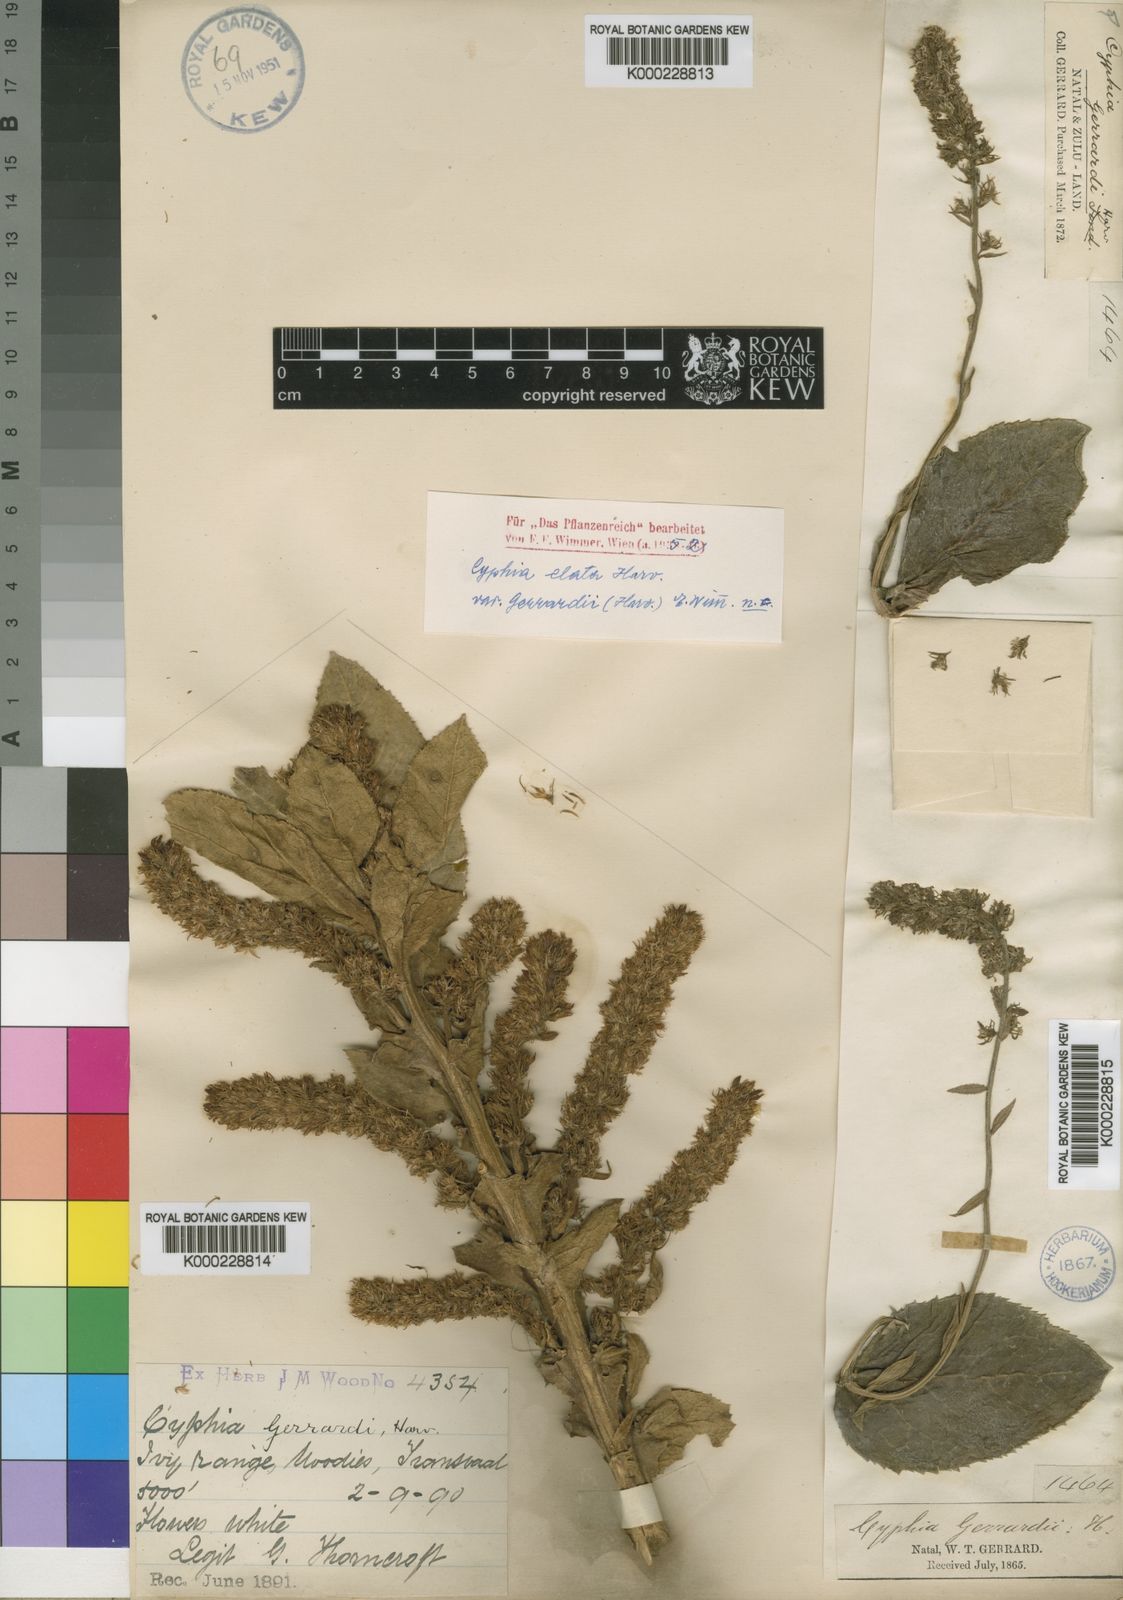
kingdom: Plantae
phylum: Tracheophyta
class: Magnoliopsida
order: Asterales
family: Campanulaceae
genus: Cyphia
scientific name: Cyphia elata
